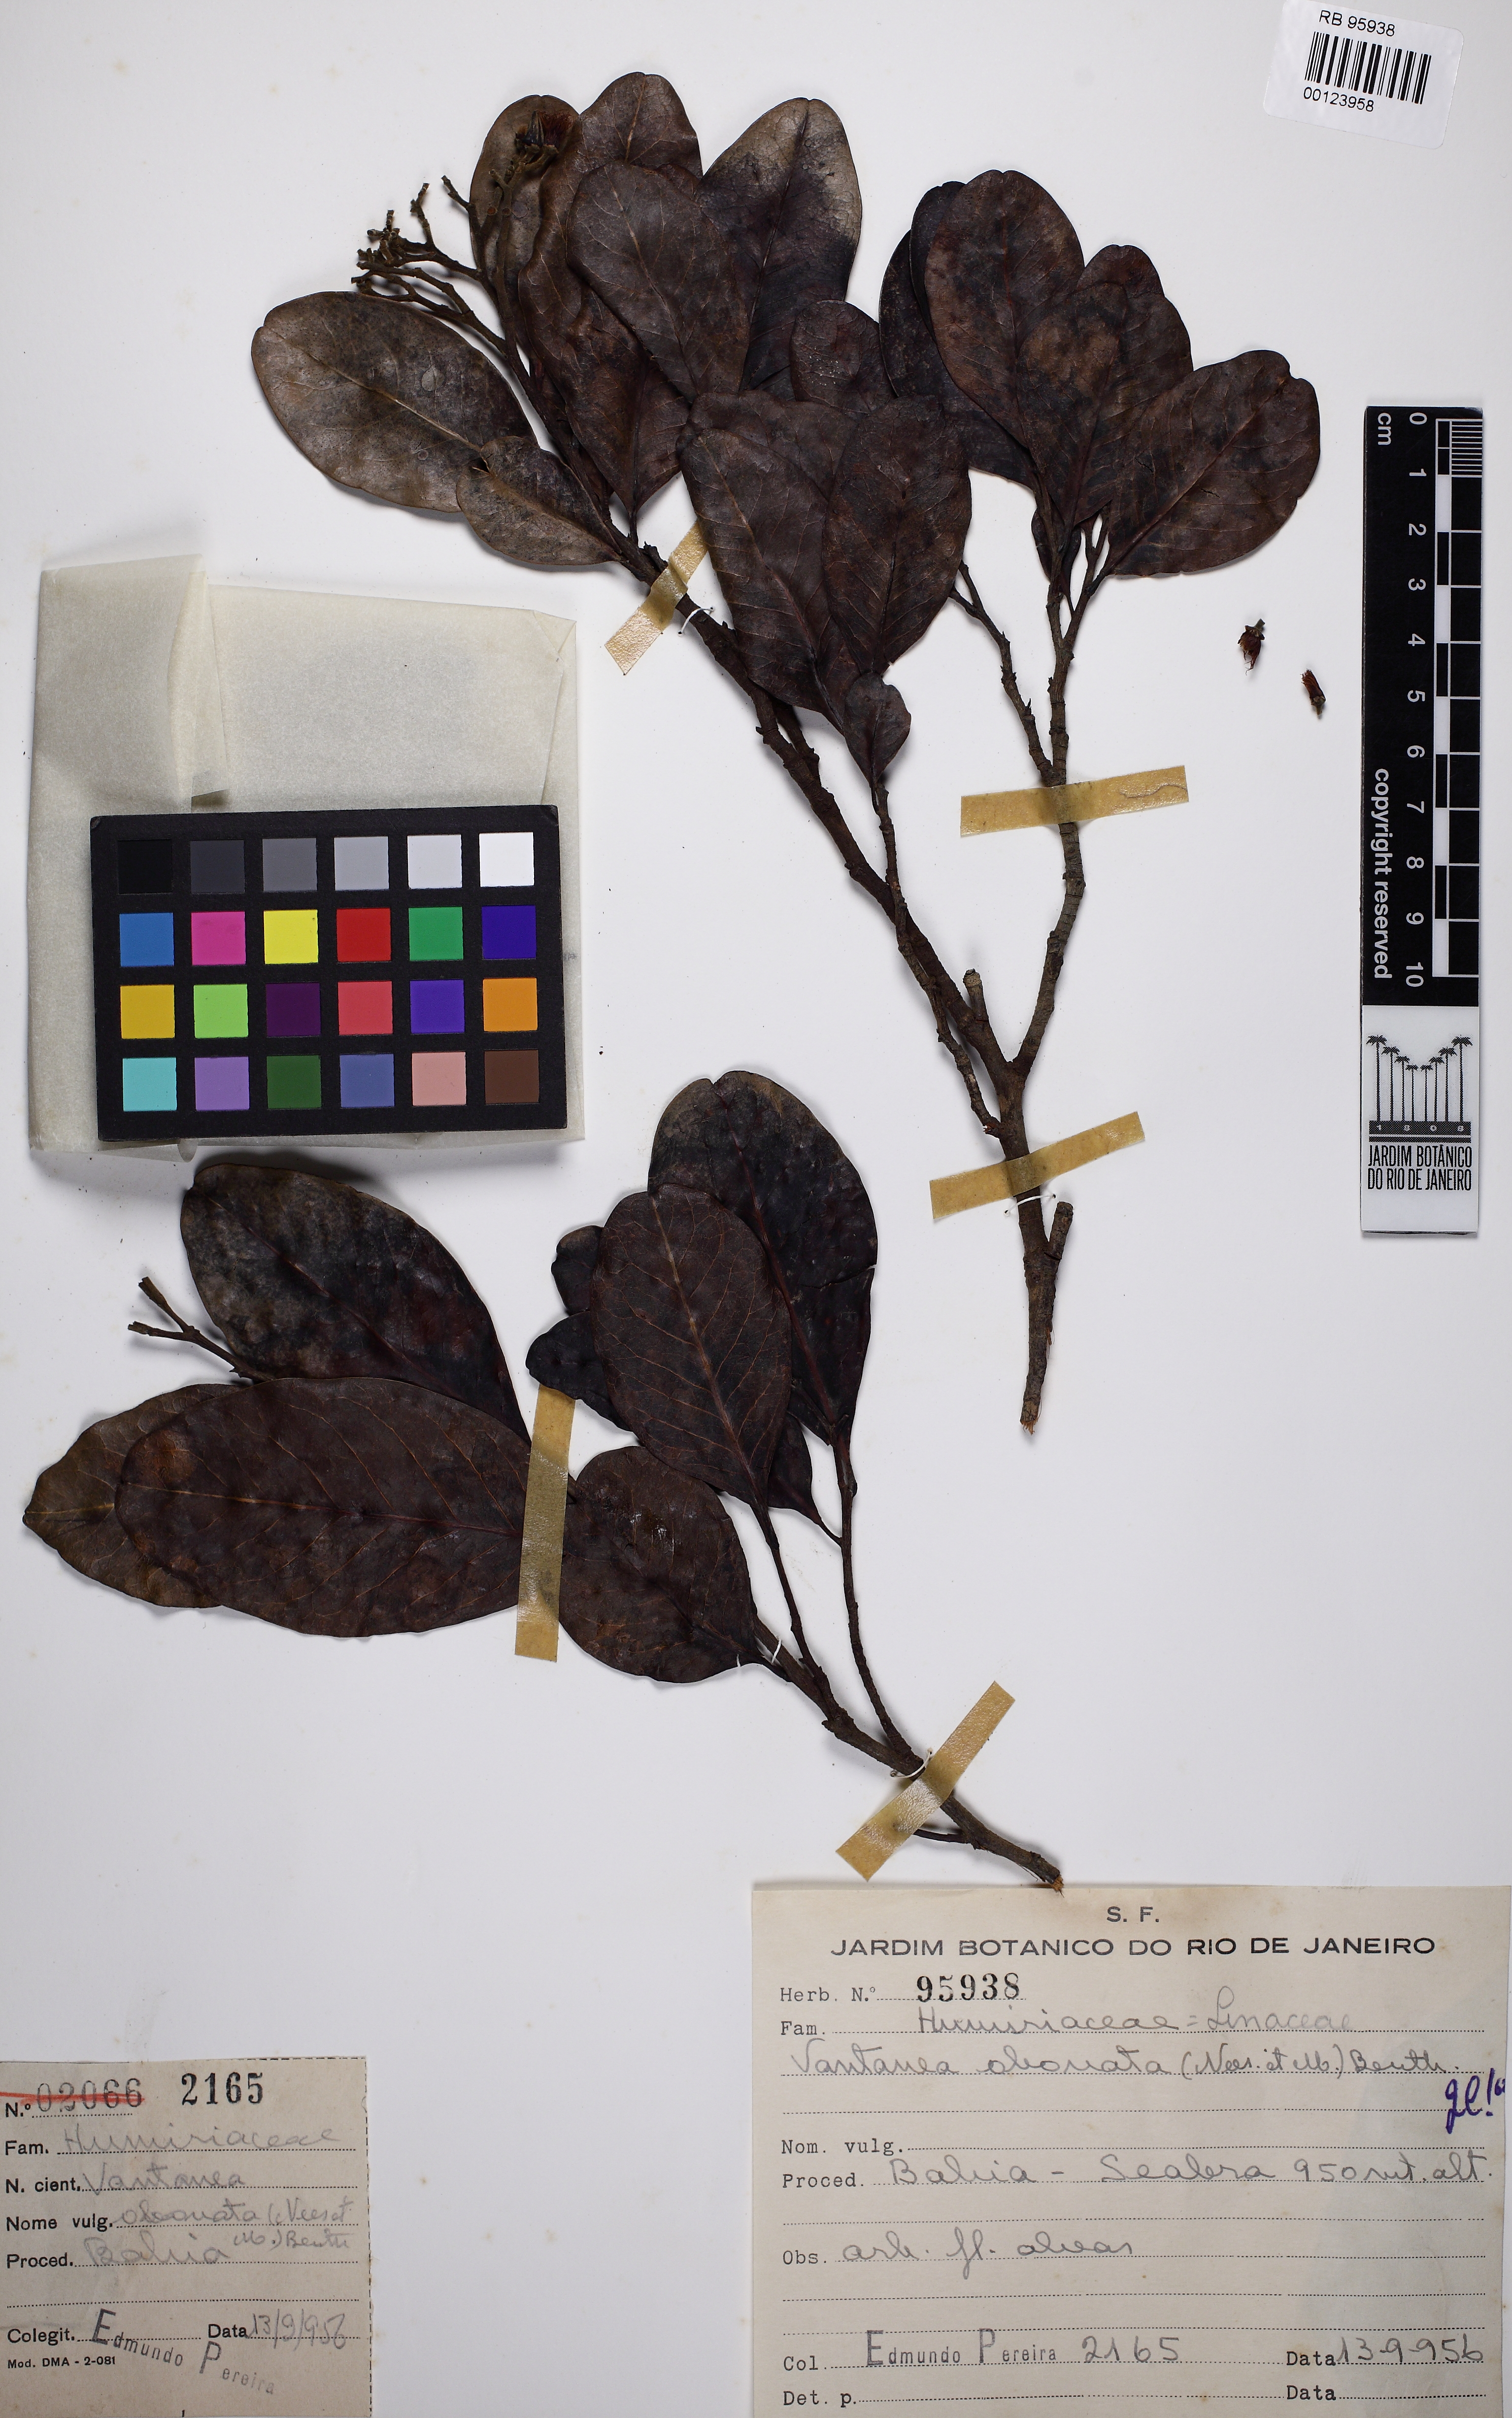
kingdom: Plantae
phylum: Tracheophyta
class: Magnoliopsida
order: Malpighiales
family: Humiriaceae
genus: Vantanea
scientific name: Vantanea obovata
